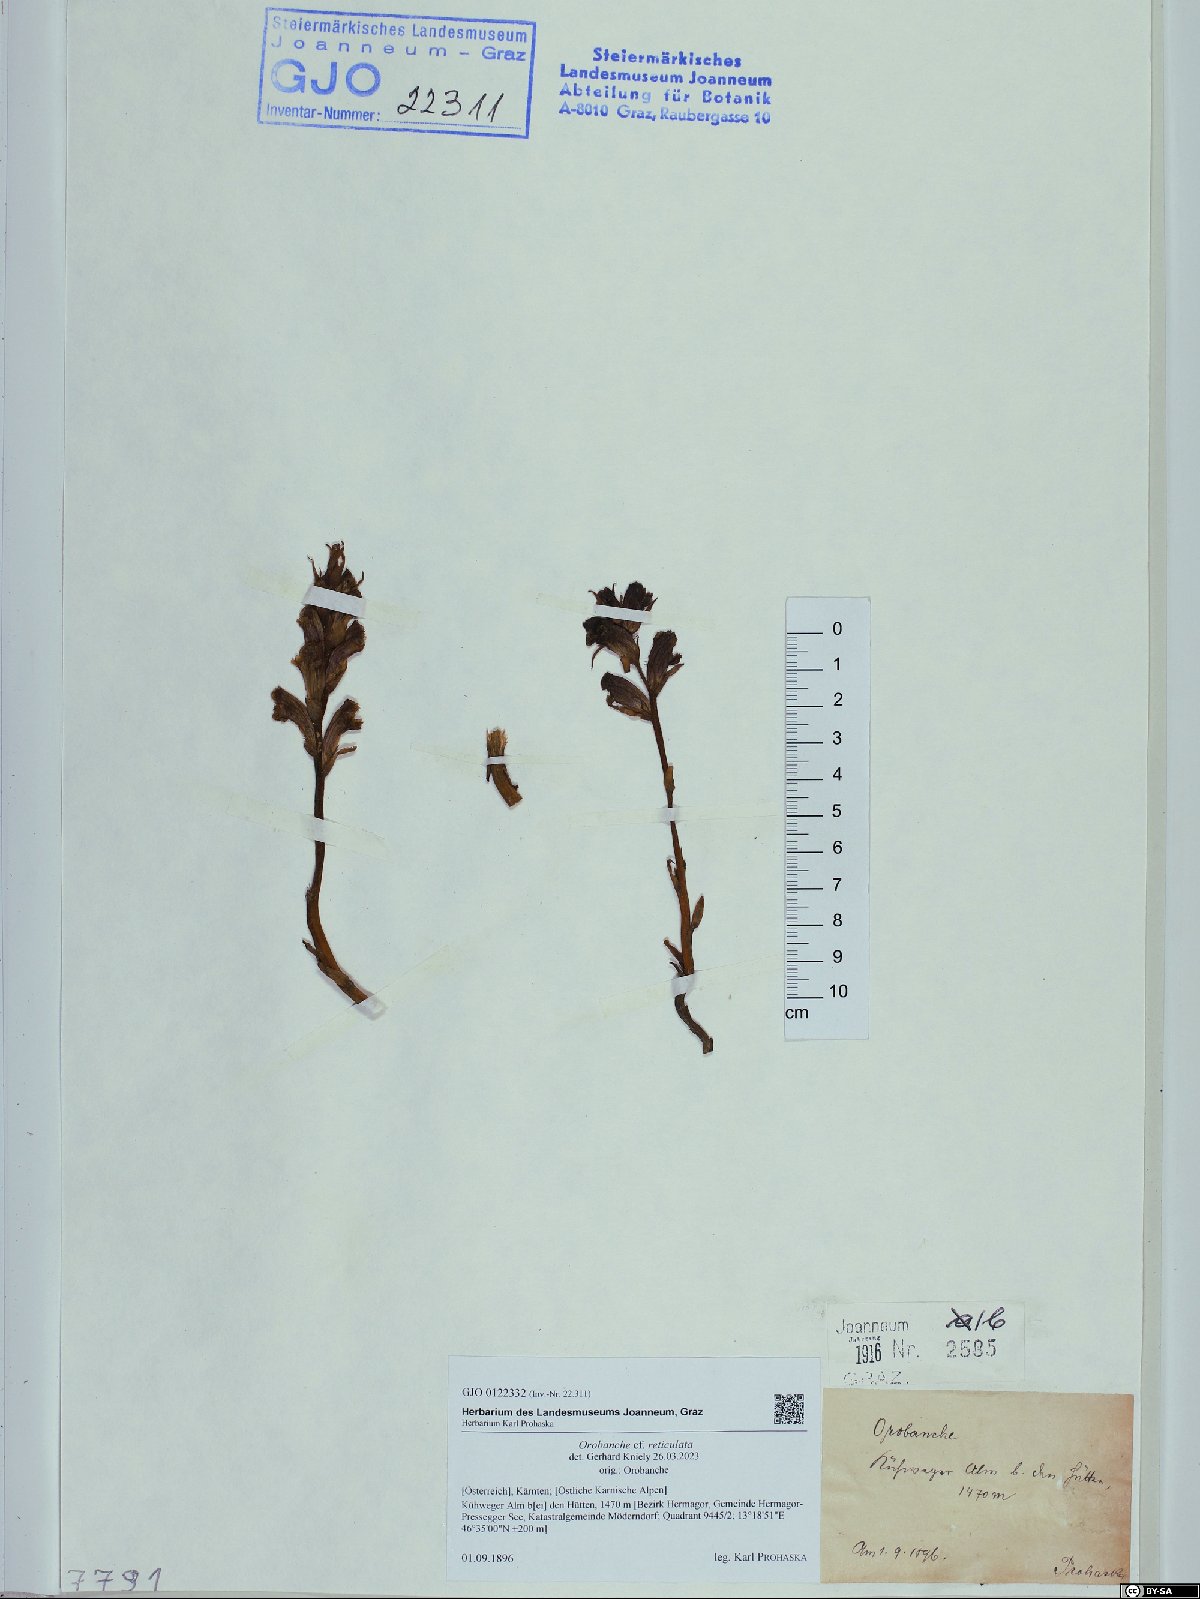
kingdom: Plantae
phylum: Tracheophyta
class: Magnoliopsida
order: Lamiales
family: Orobanchaceae
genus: Orobanche
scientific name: Orobanche reticulata
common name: Thistle broomrape
